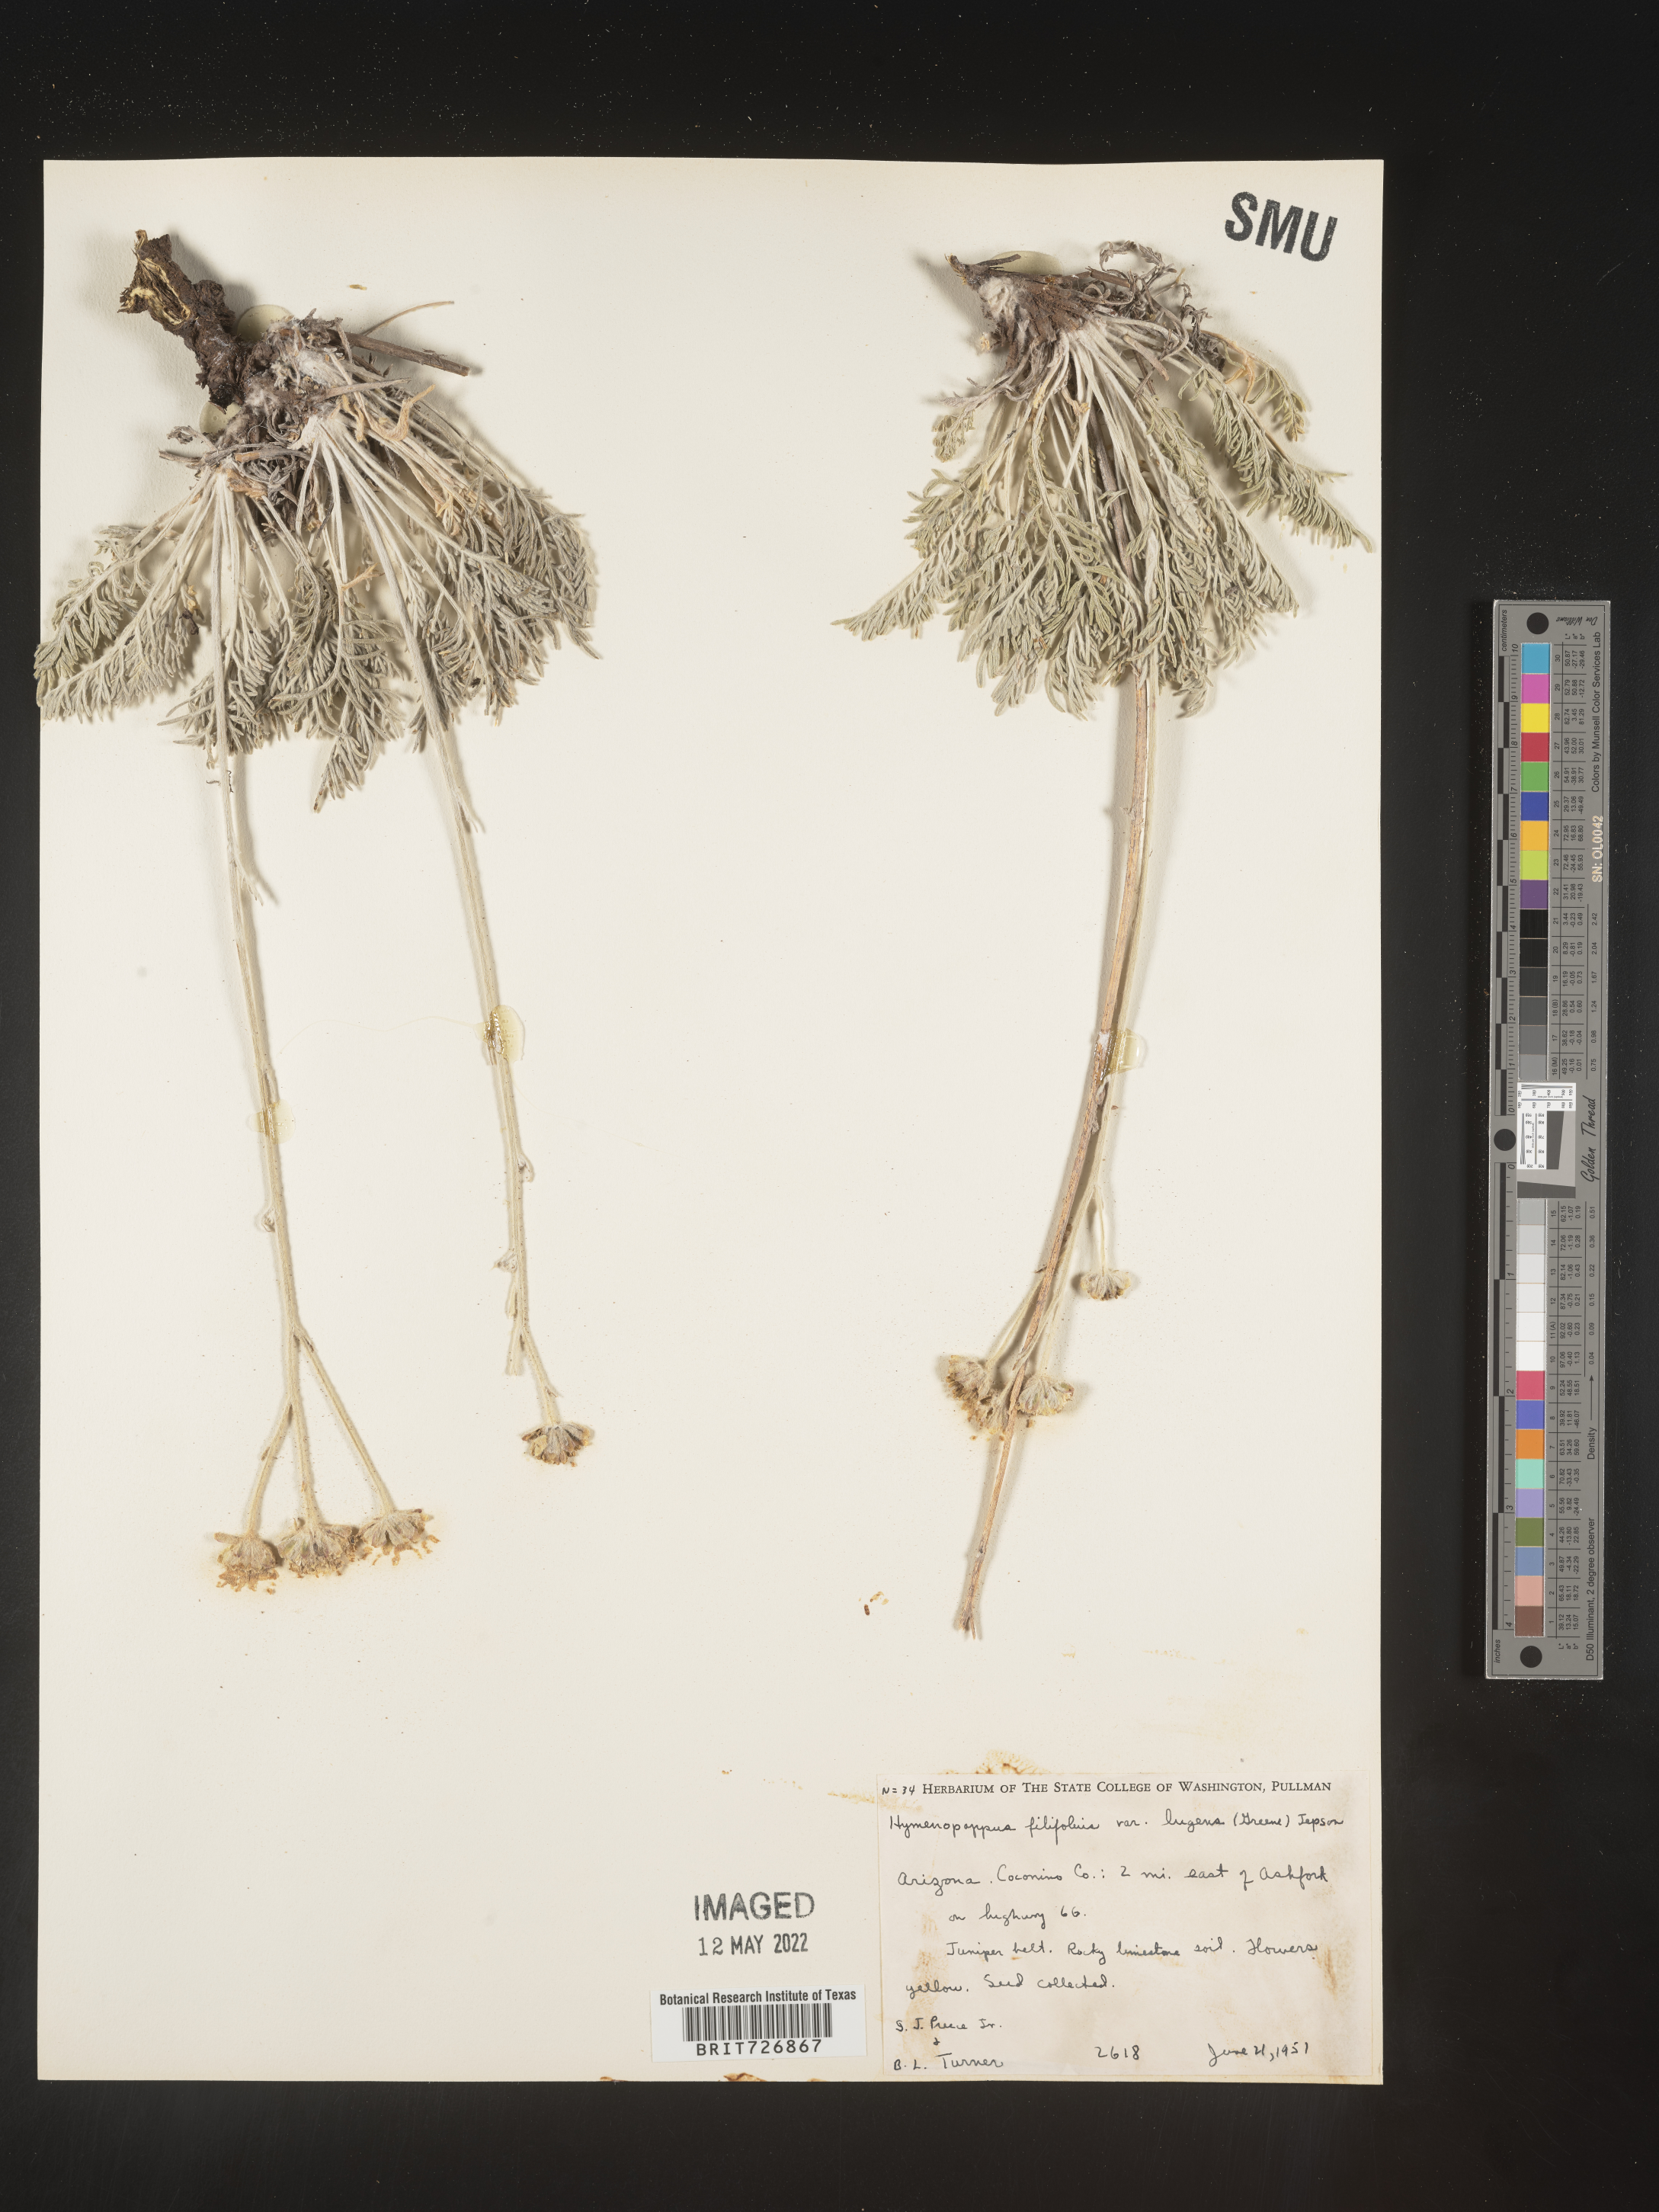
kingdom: Plantae
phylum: Tracheophyta
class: Magnoliopsida
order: Asterales
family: Asteraceae
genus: Hymenopappus
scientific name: Hymenopappus filifolius
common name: Columbia cutleaf
